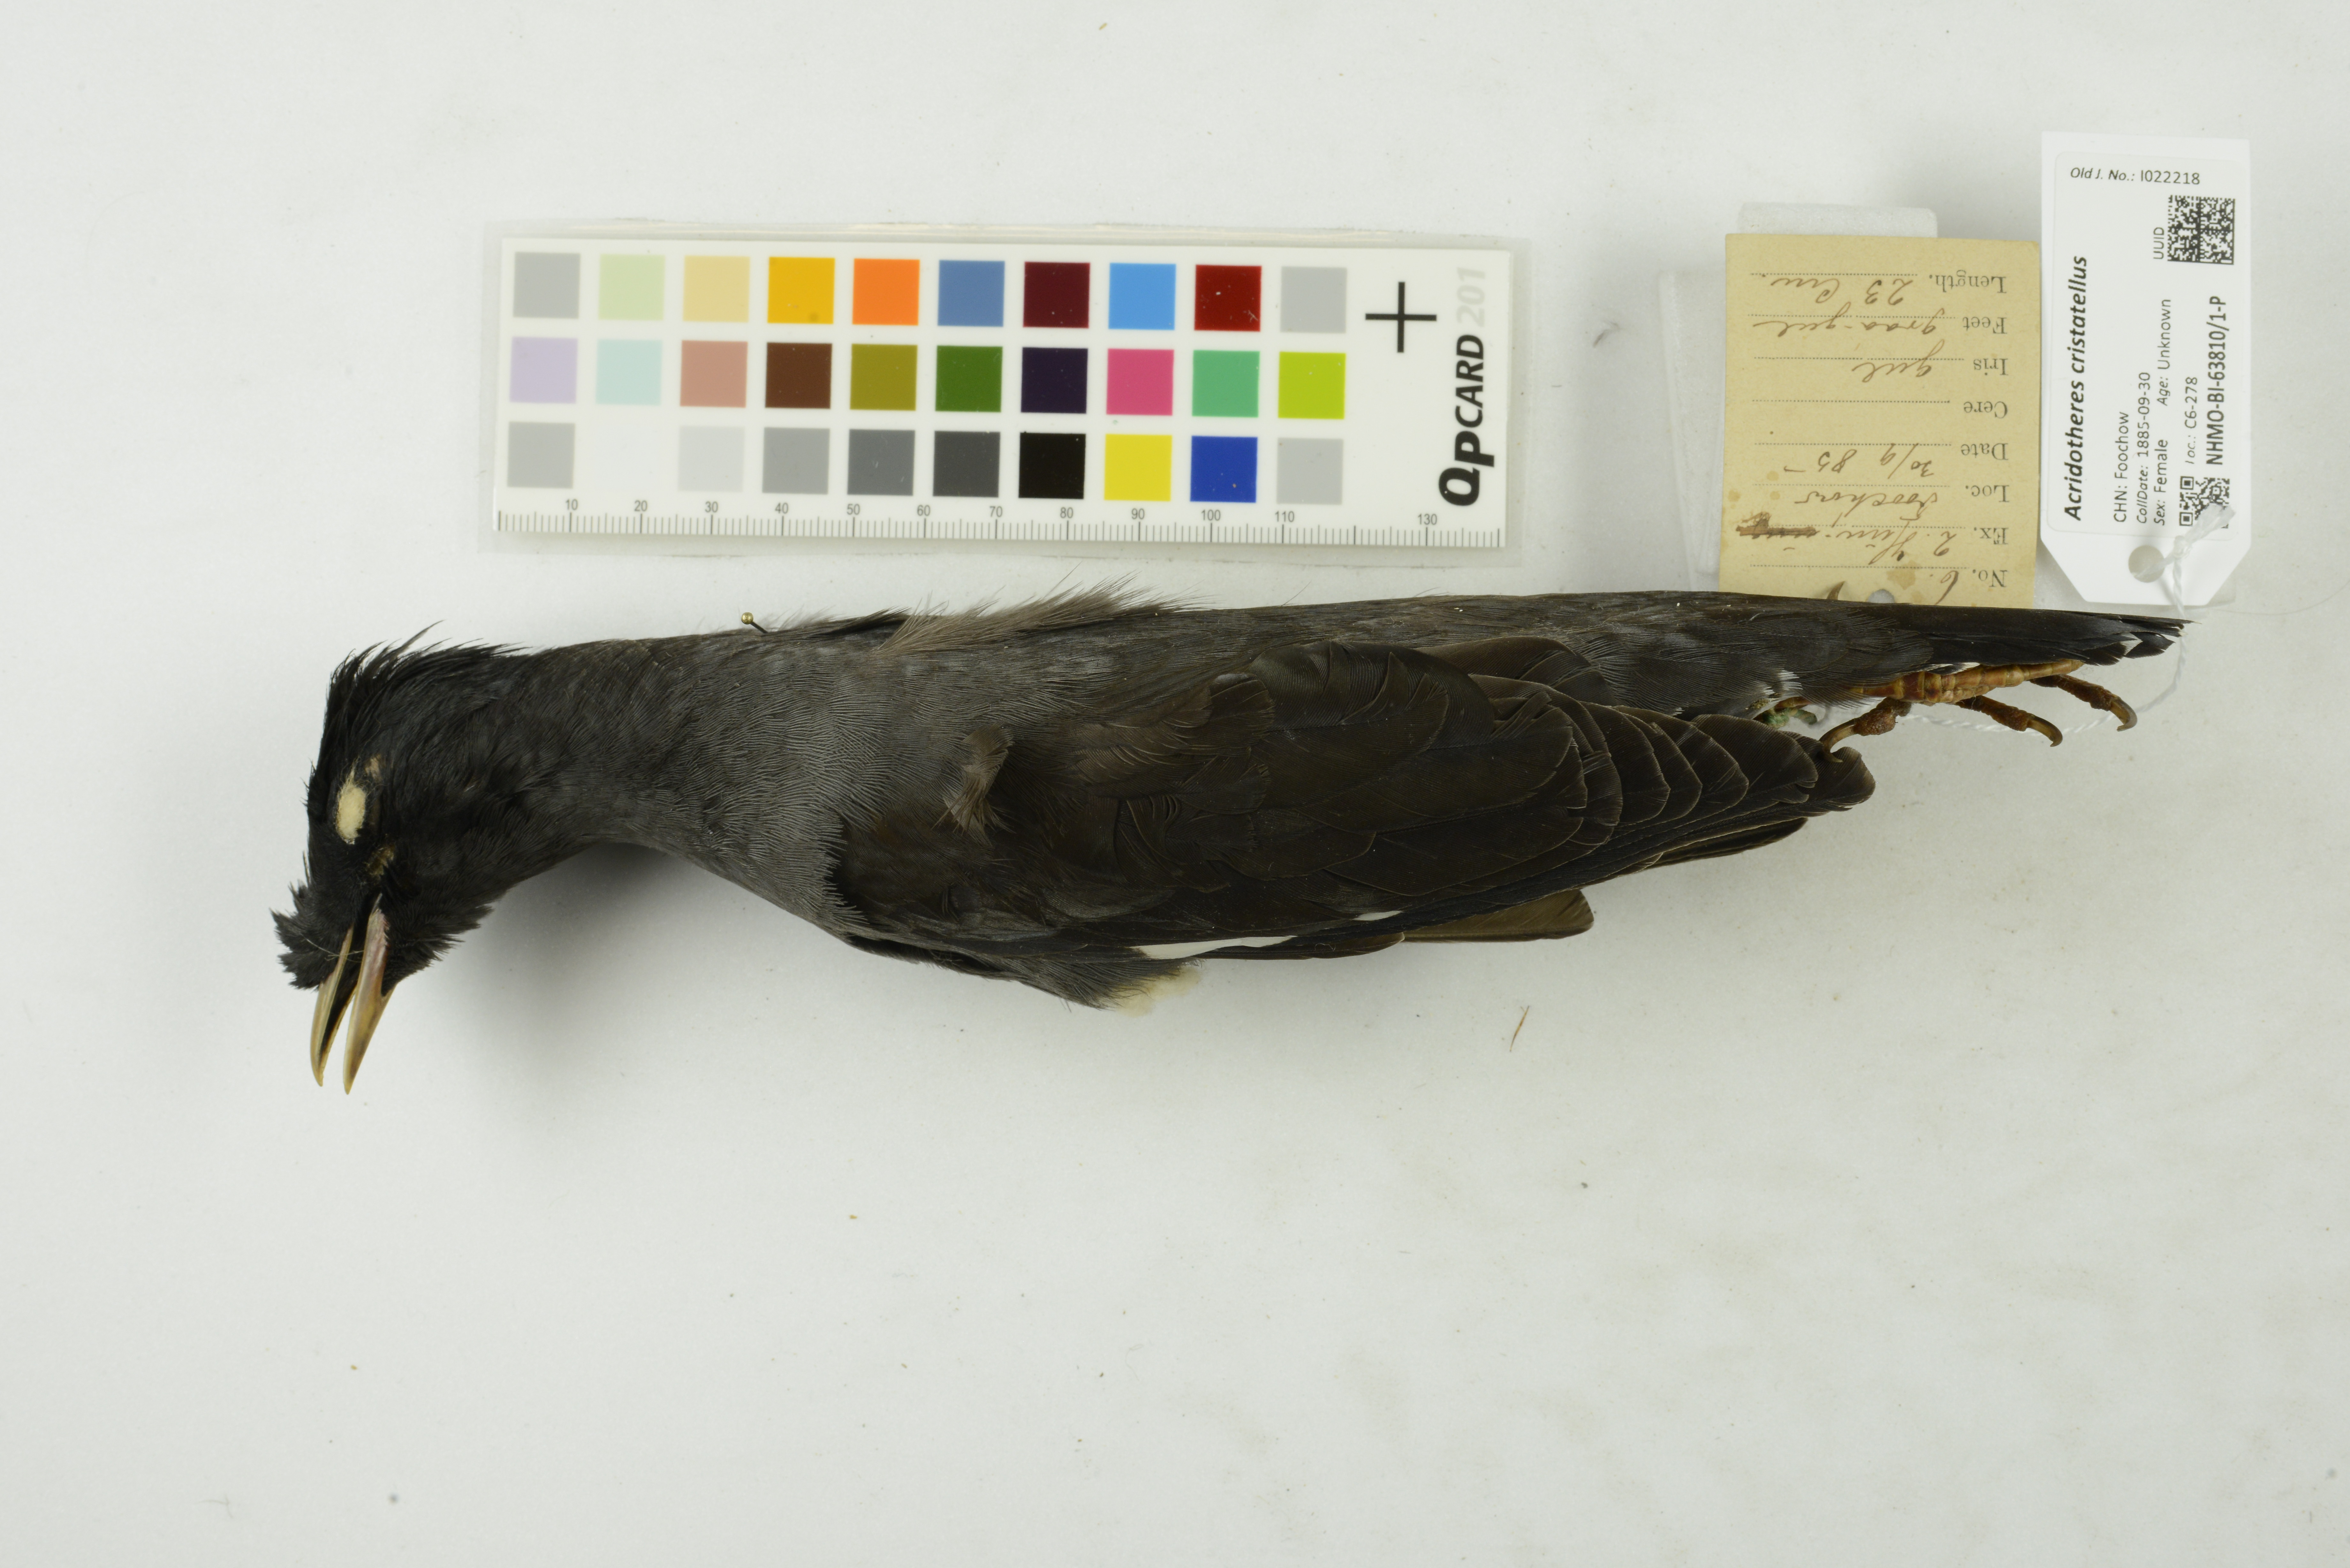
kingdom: Animalia
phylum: Chordata
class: Aves
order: Passeriformes
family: Sturnidae
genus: Acridotheres
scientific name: Acridotheres cristatellus
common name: Crested myna
